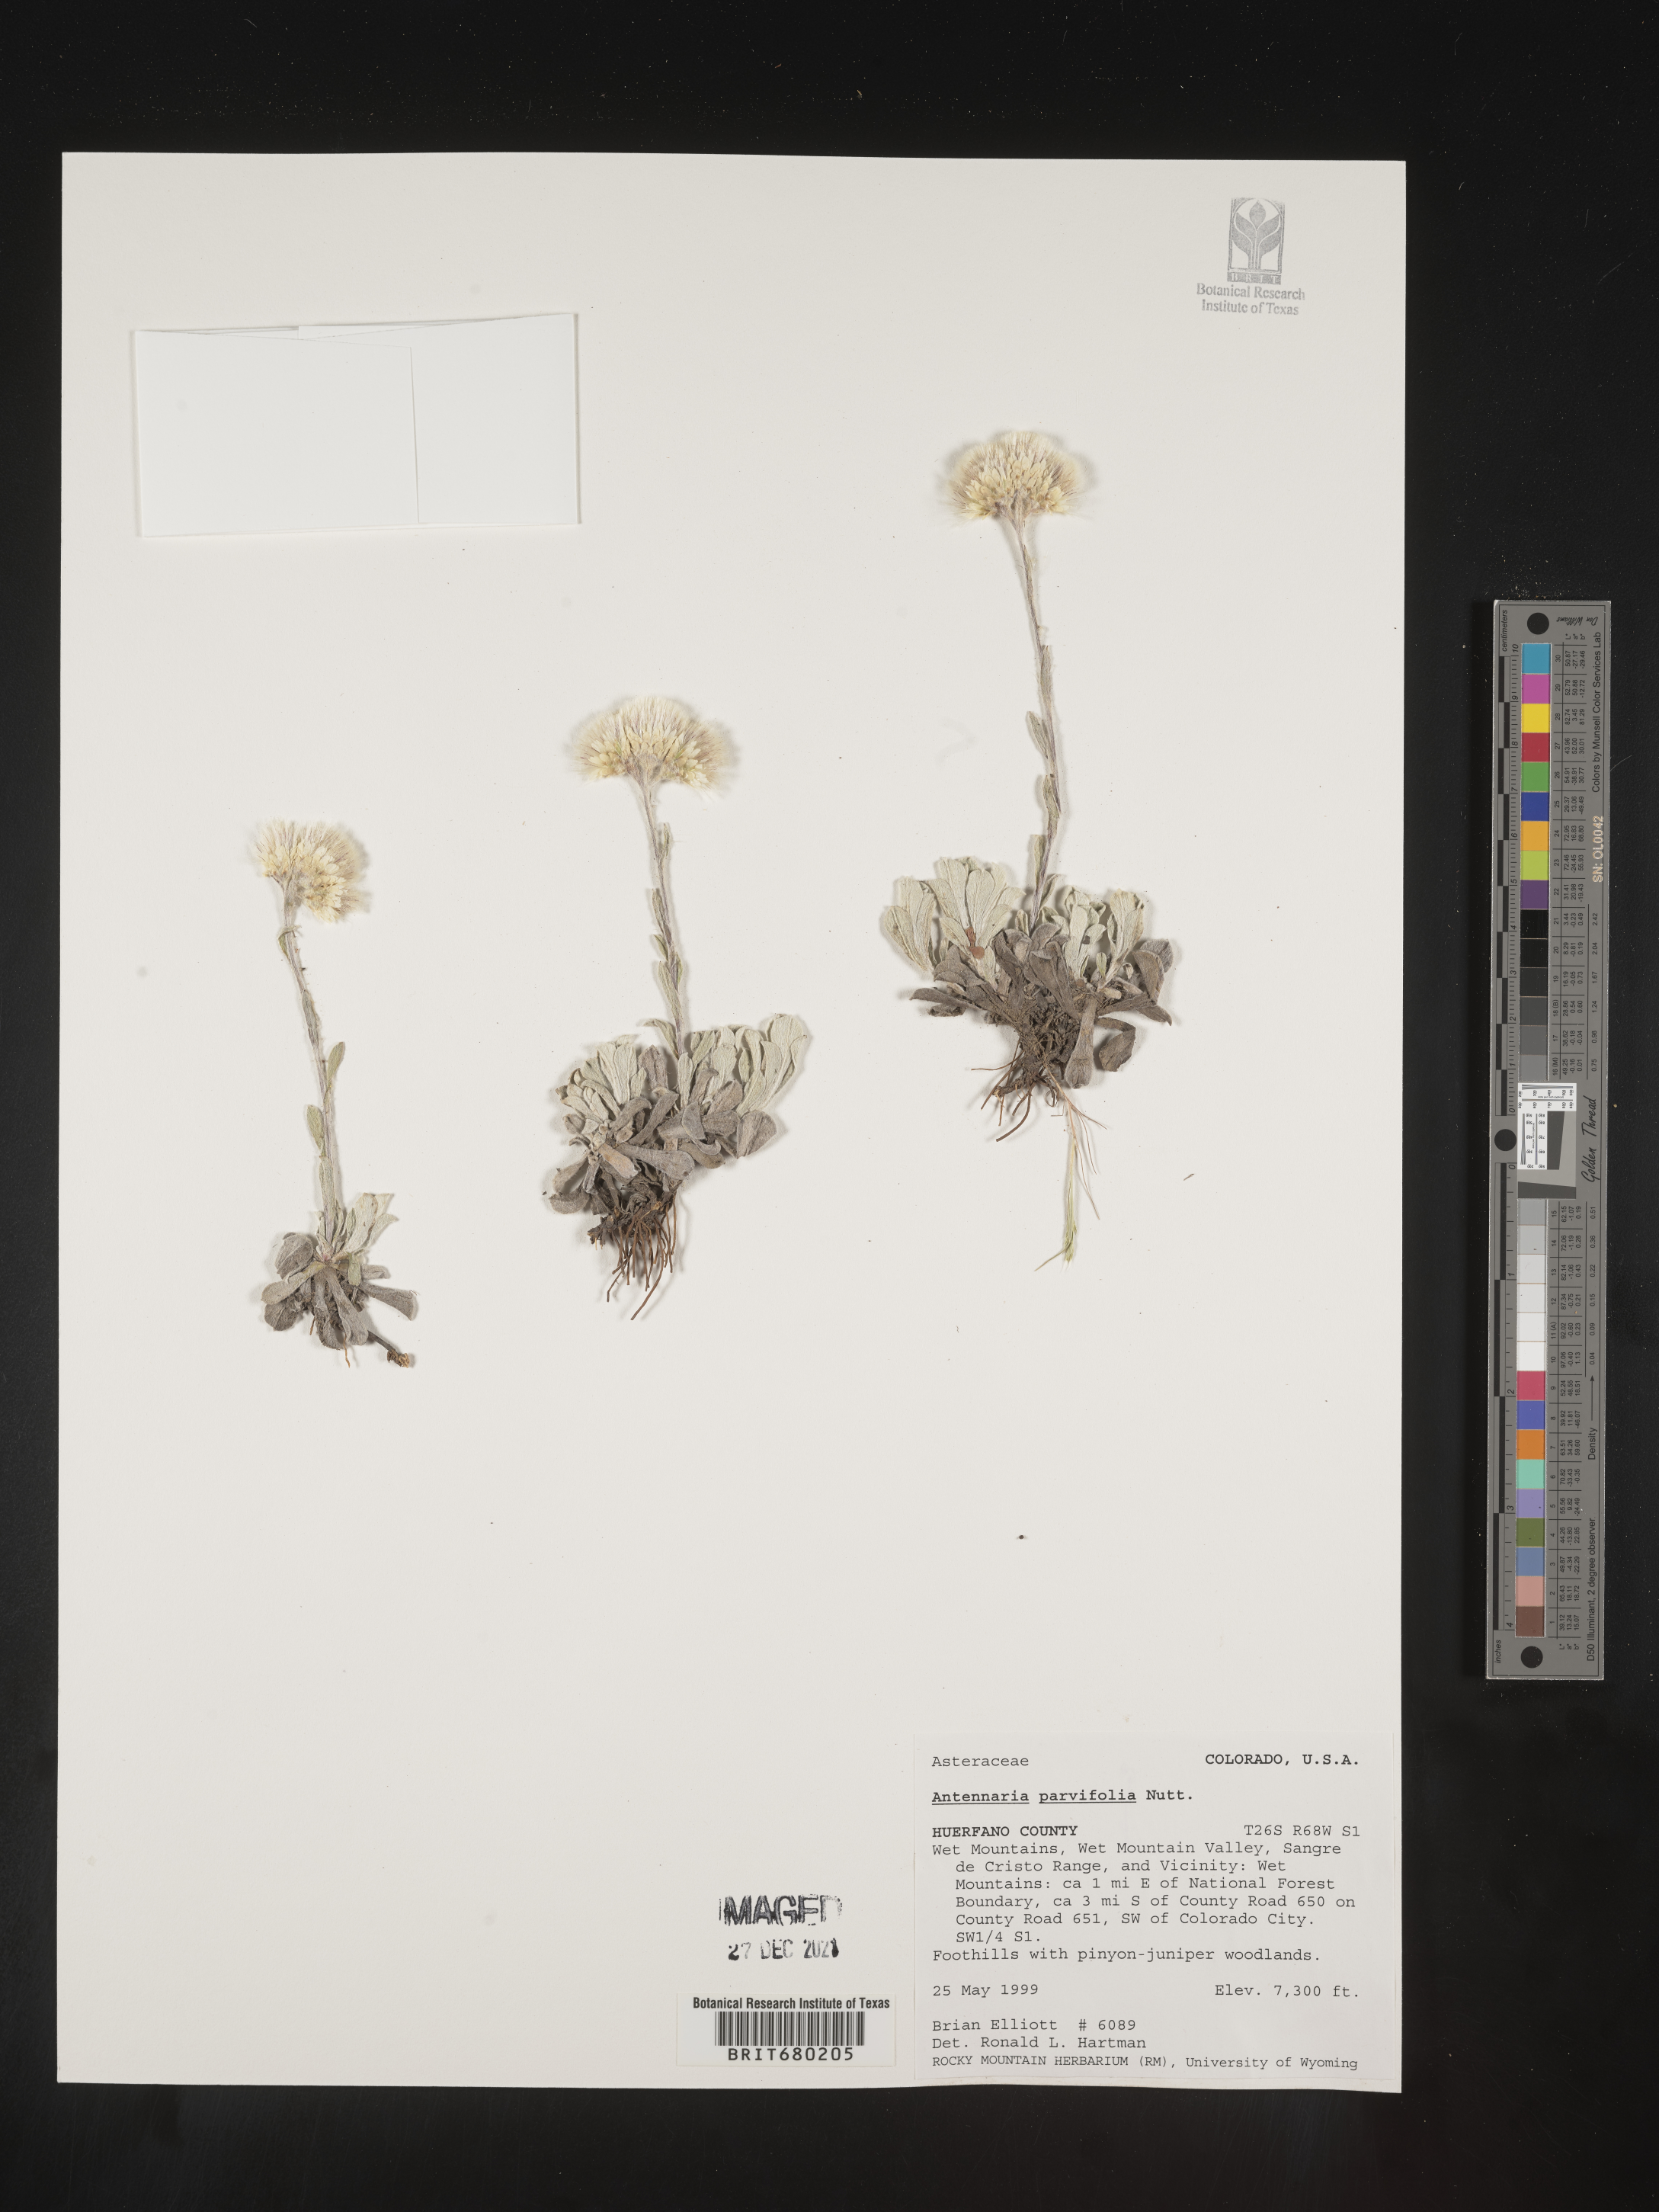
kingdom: Plantae
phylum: Tracheophyta
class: Magnoliopsida
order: Asterales
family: Asteraceae
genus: Antennaria
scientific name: Antennaria plantaginifolia
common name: Plantain-leaved pussytoes
